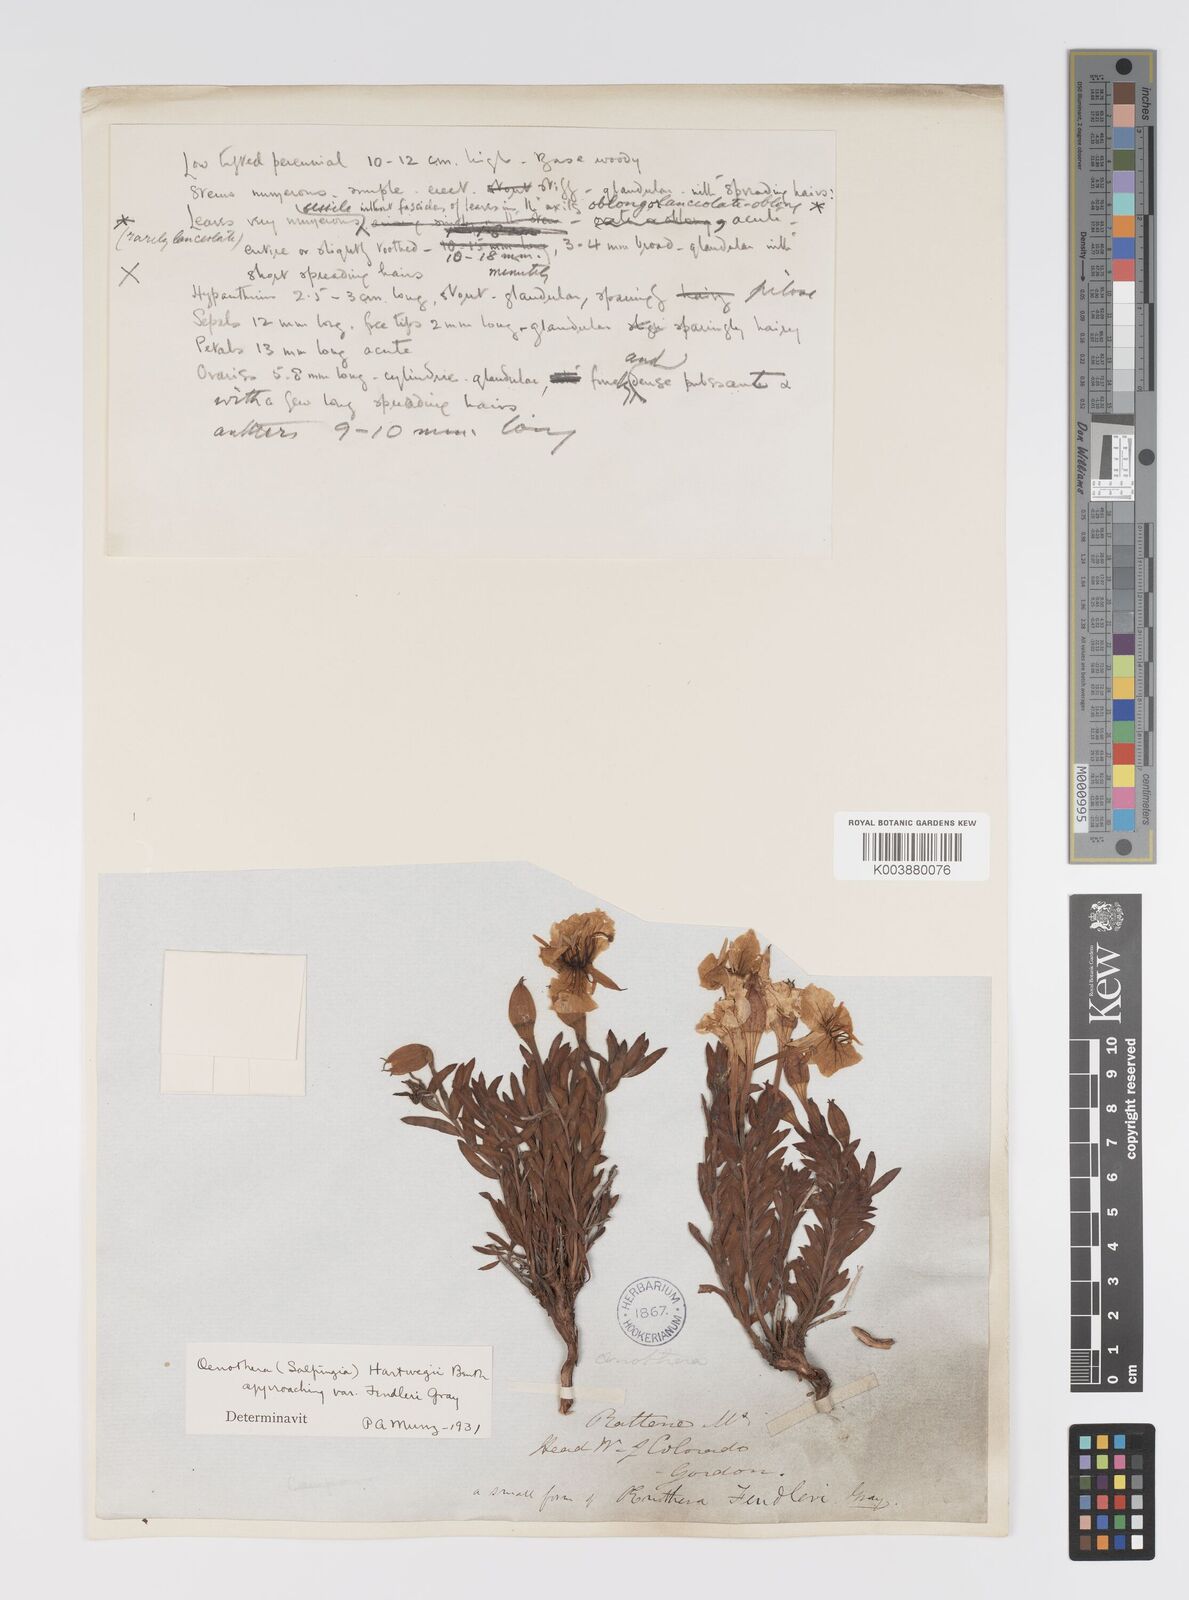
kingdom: Plantae
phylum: Tracheophyta
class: Magnoliopsida
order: Myrtales
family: Onagraceae
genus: Oenothera
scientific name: Oenothera hartwegii
